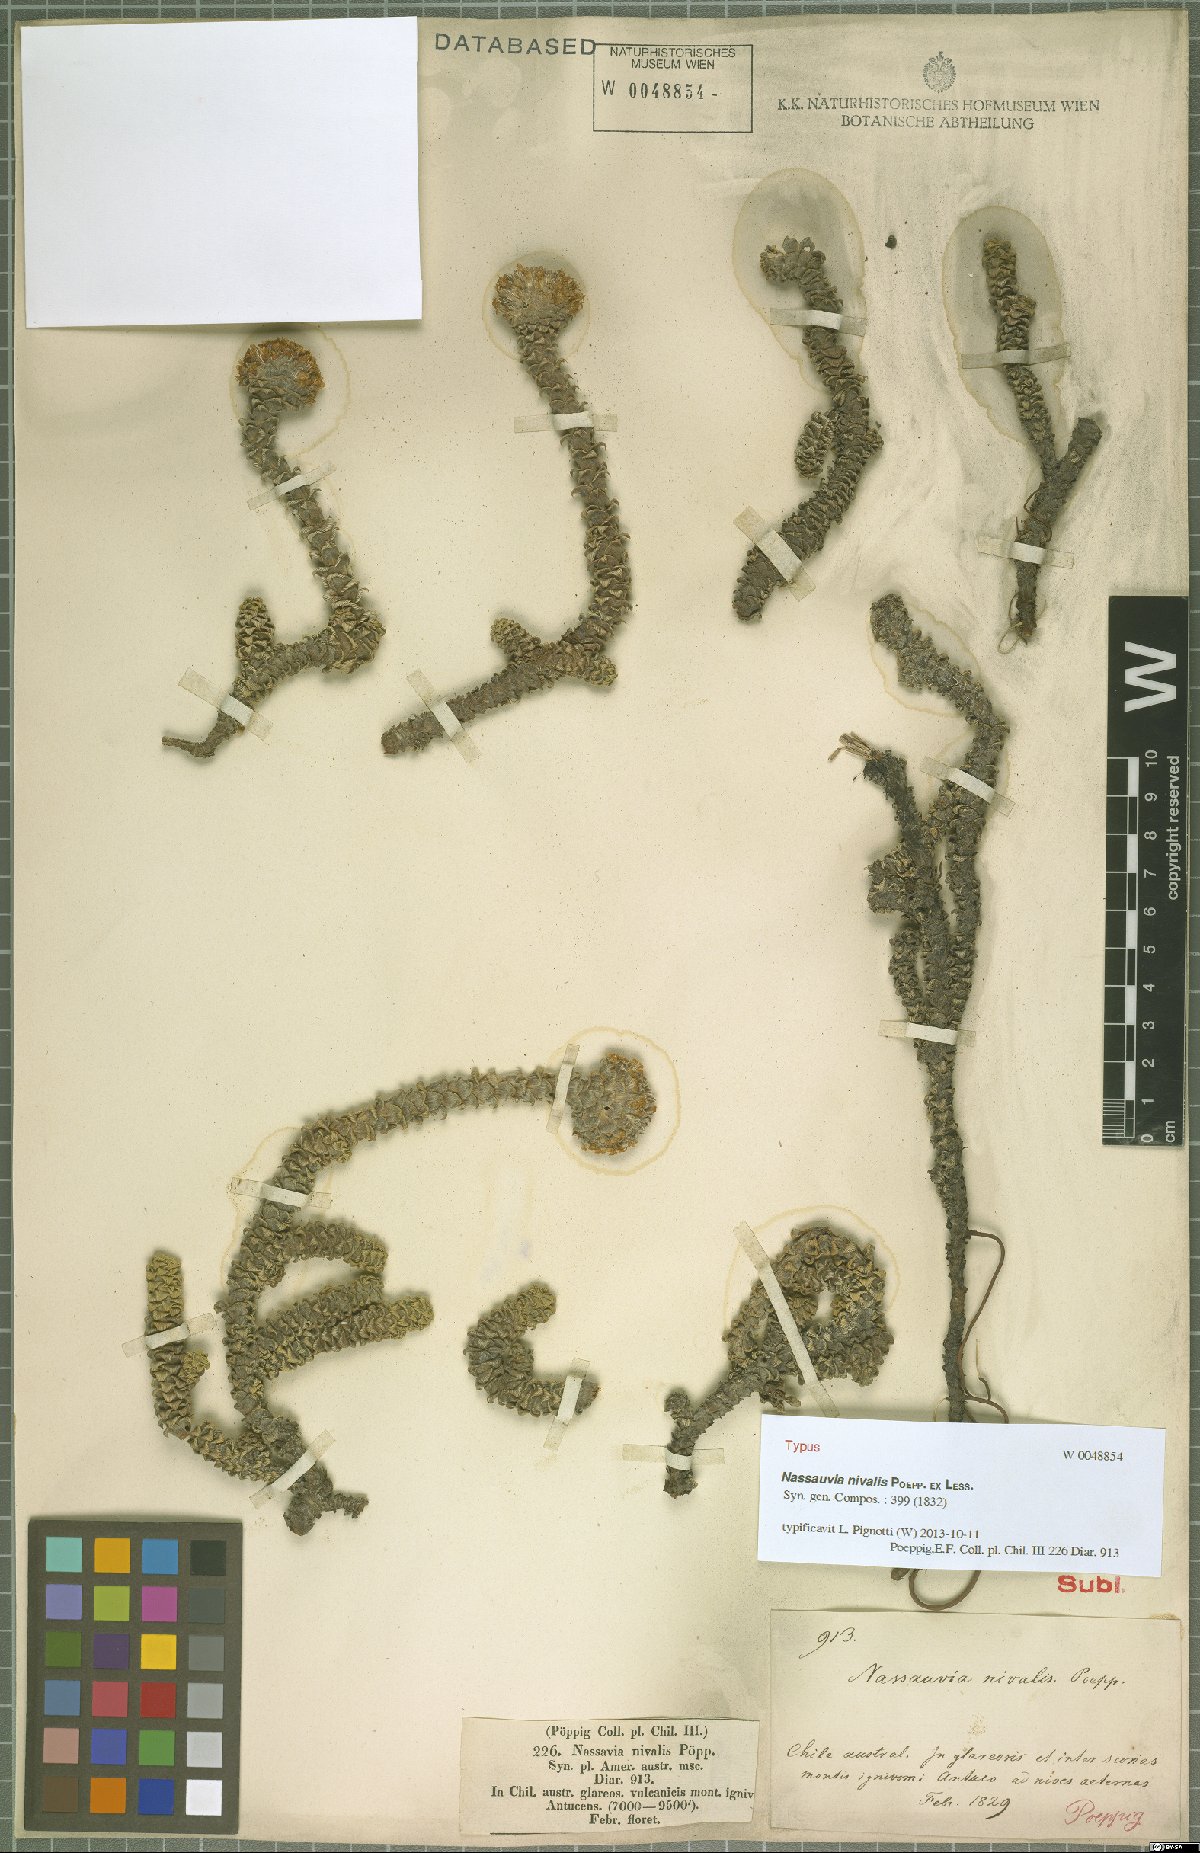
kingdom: Plantae
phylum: Tracheophyta
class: Magnoliopsida
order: Asterales
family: Asteraceae
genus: Nassauvia
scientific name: Nassauvia revoluta
